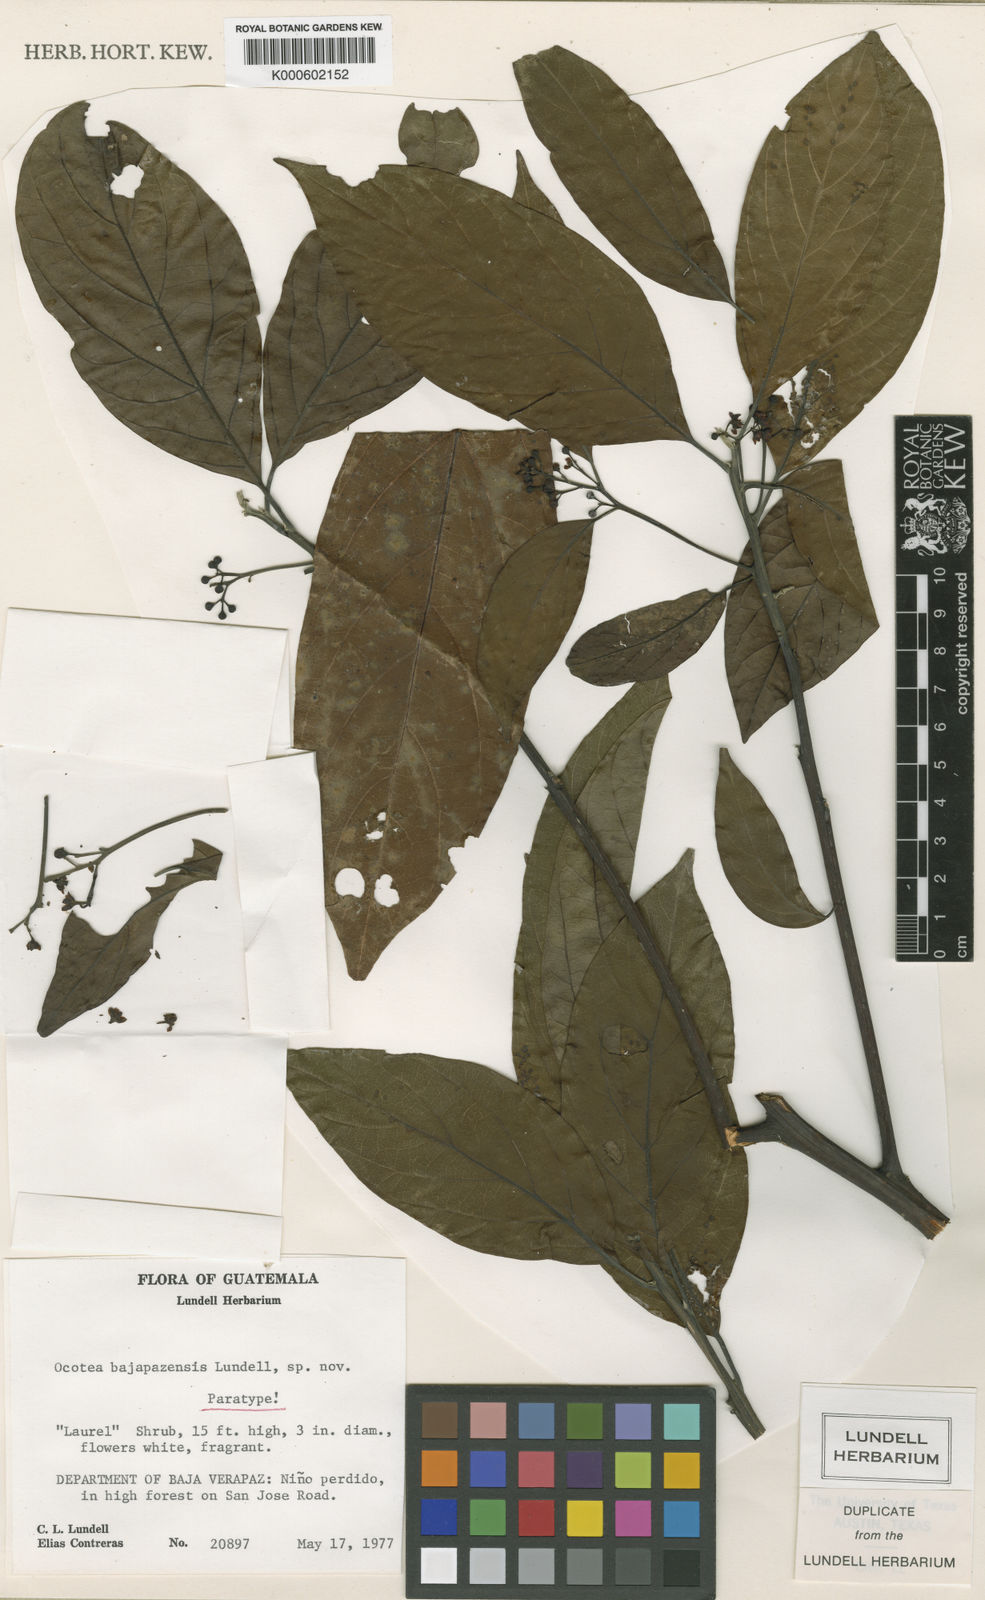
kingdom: Plantae
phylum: Tracheophyta
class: Magnoliopsida
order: Laurales
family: Lauraceae
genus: Ocotea
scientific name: Ocotea bajapazensis
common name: Laurel tree
